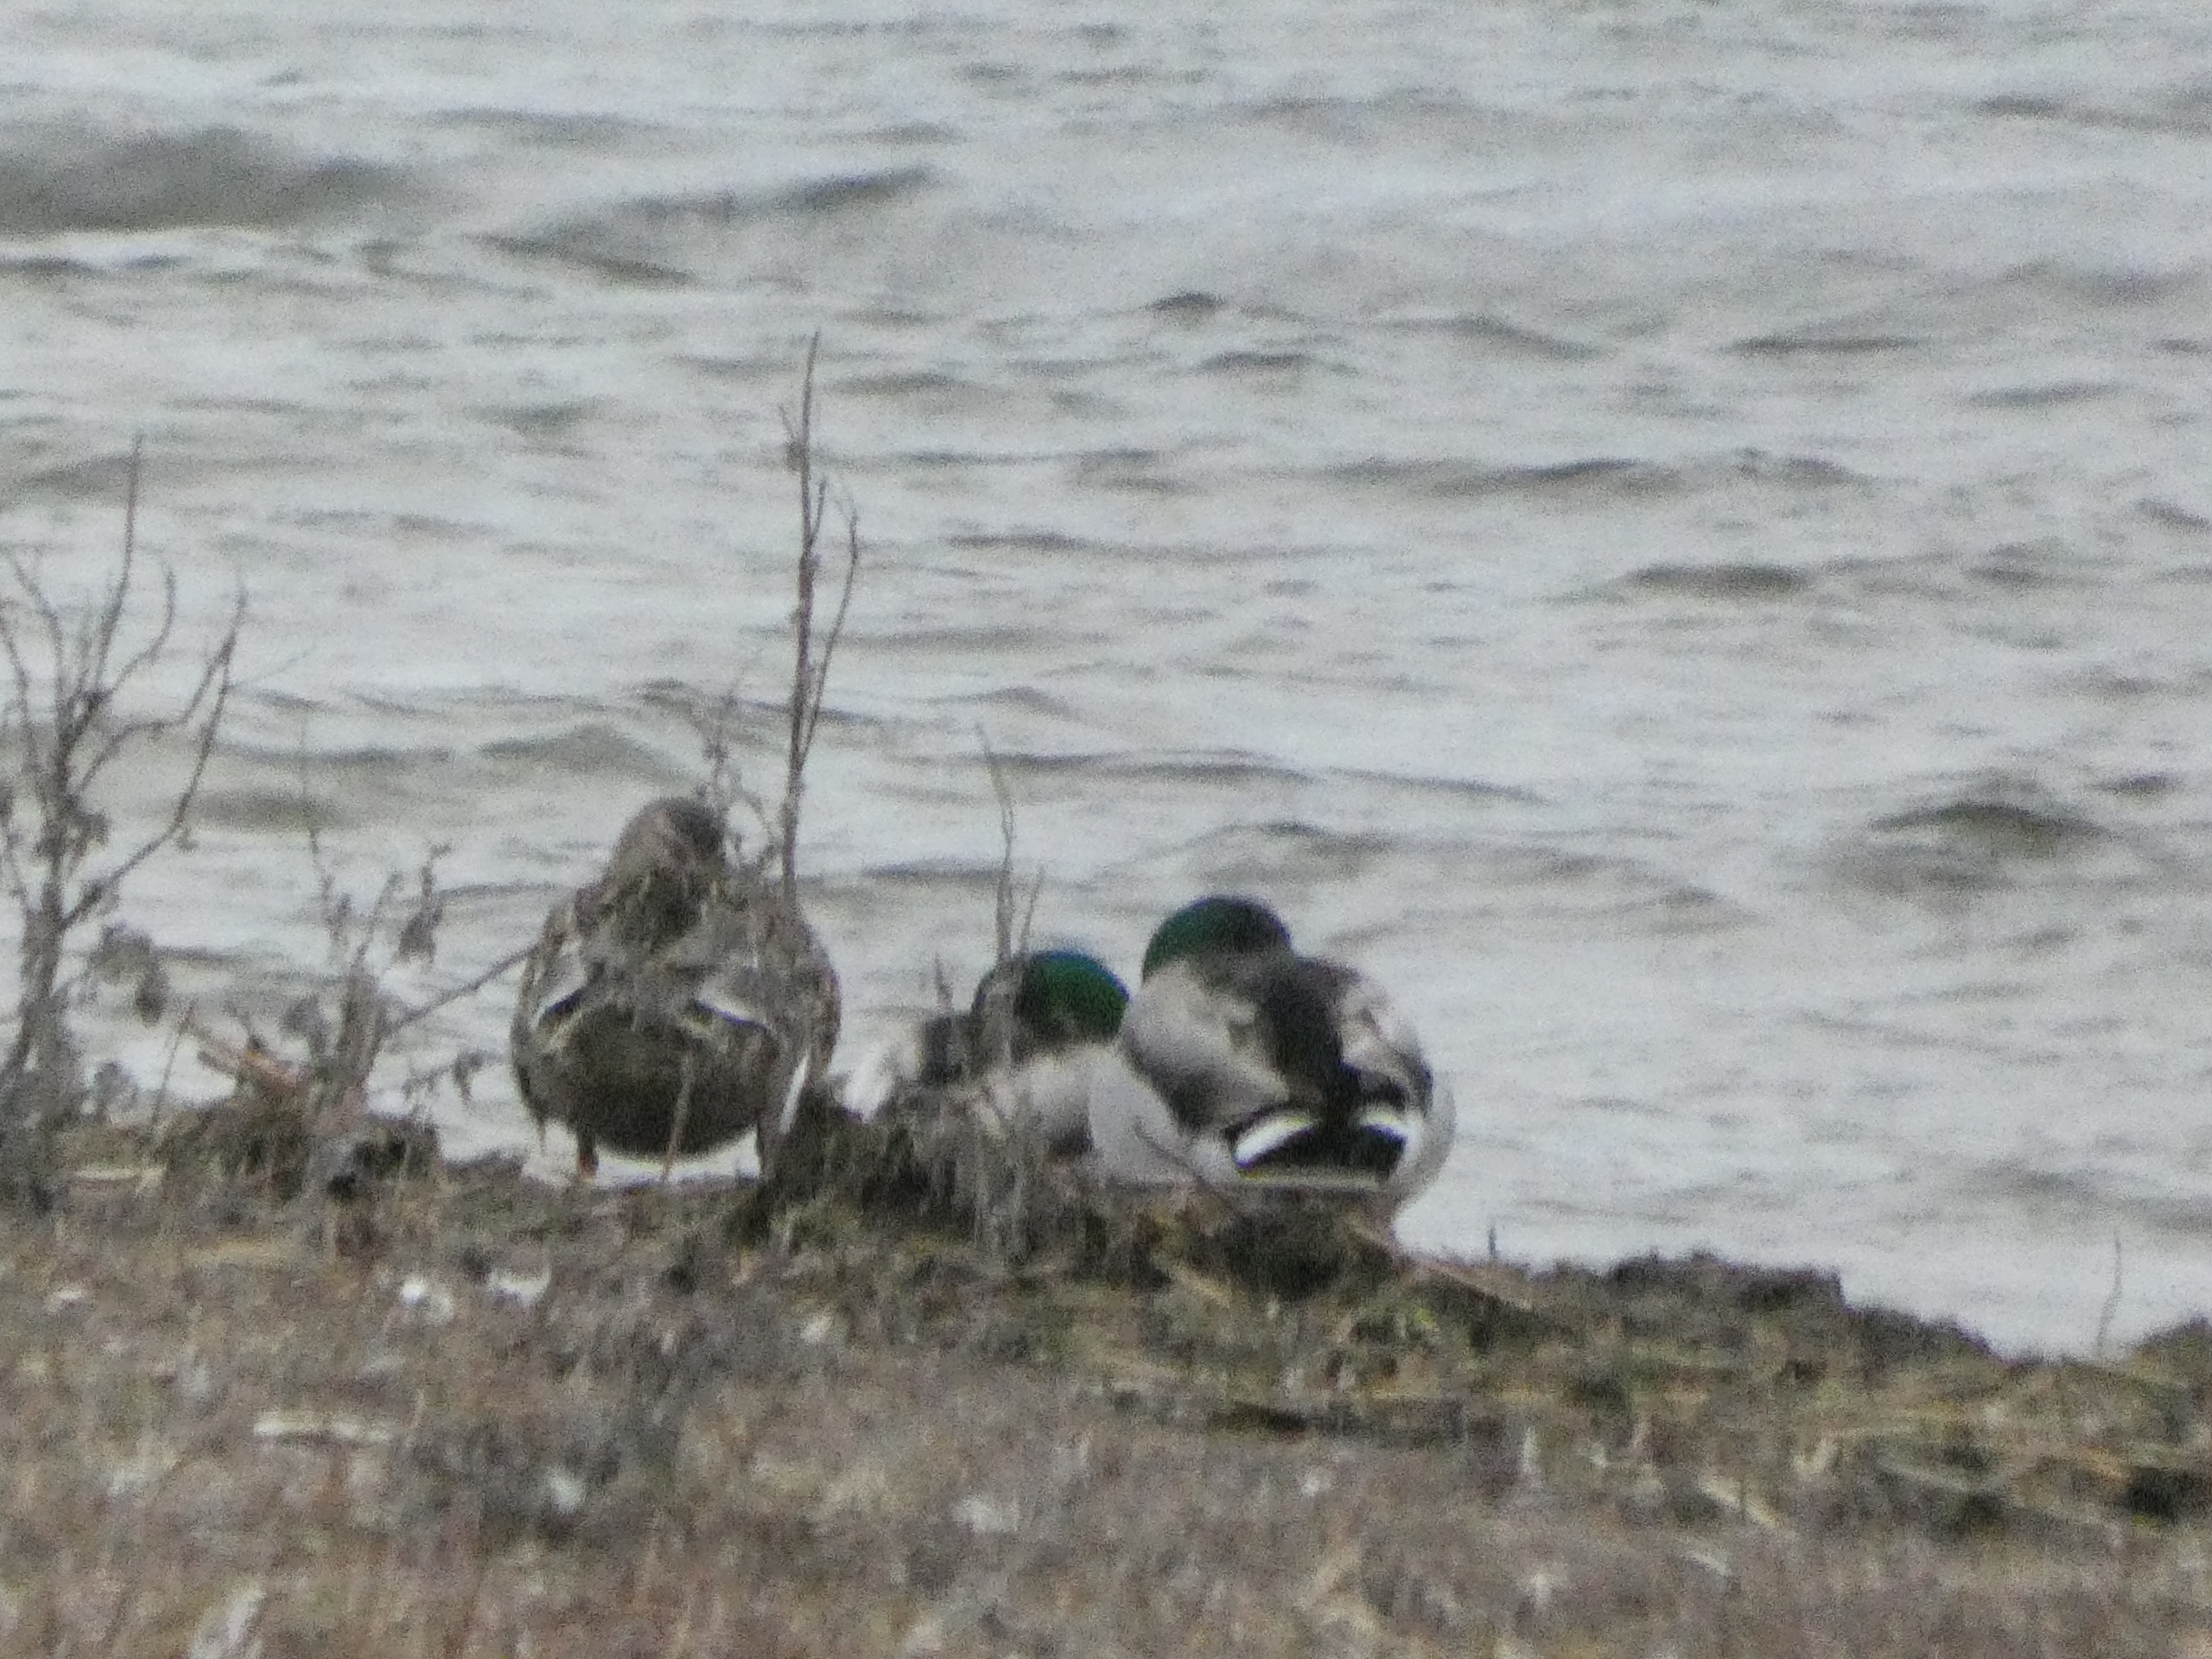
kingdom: Animalia
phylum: Chordata
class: Aves
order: Anseriformes
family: Anatidae
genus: Anas
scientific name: Anas platyrhynchos
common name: Gråand
